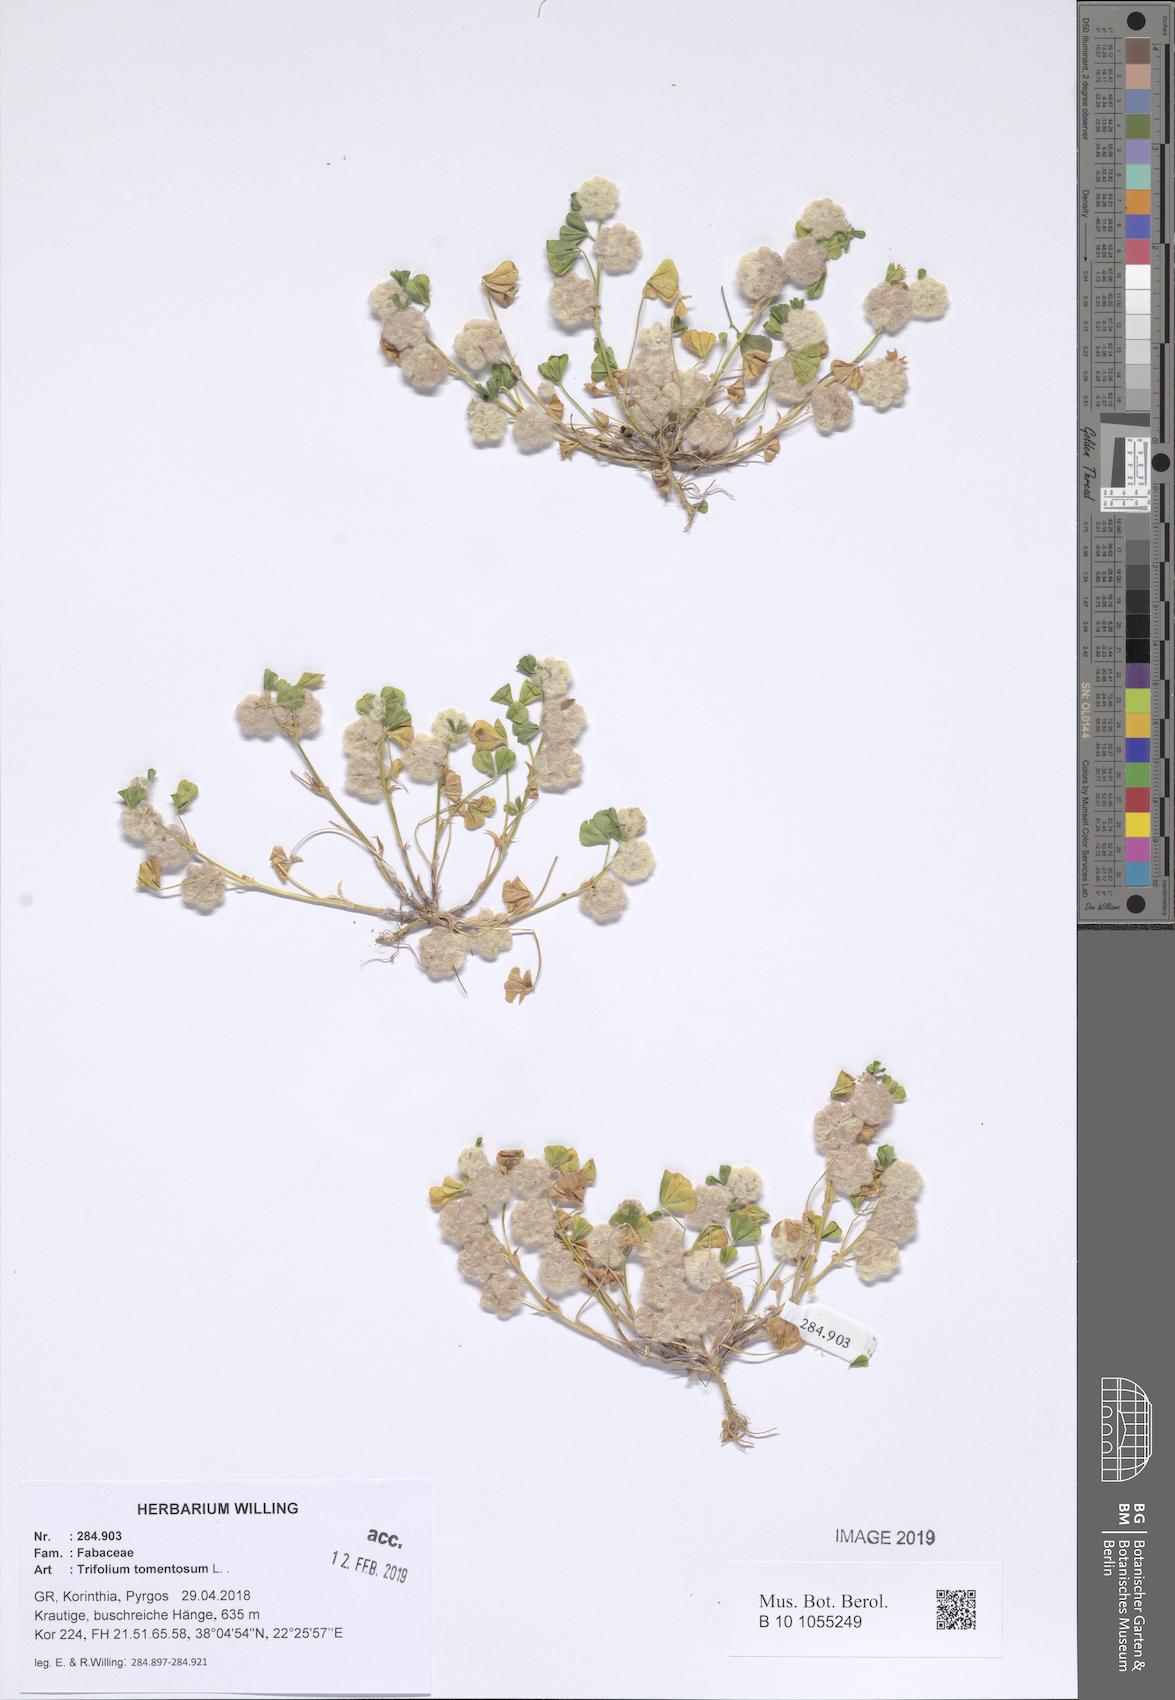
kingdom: Plantae
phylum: Tracheophyta
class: Magnoliopsida
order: Fabales
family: Fabaceae
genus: Trifolium
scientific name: Trifolium tomentosum
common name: Woolly clover
